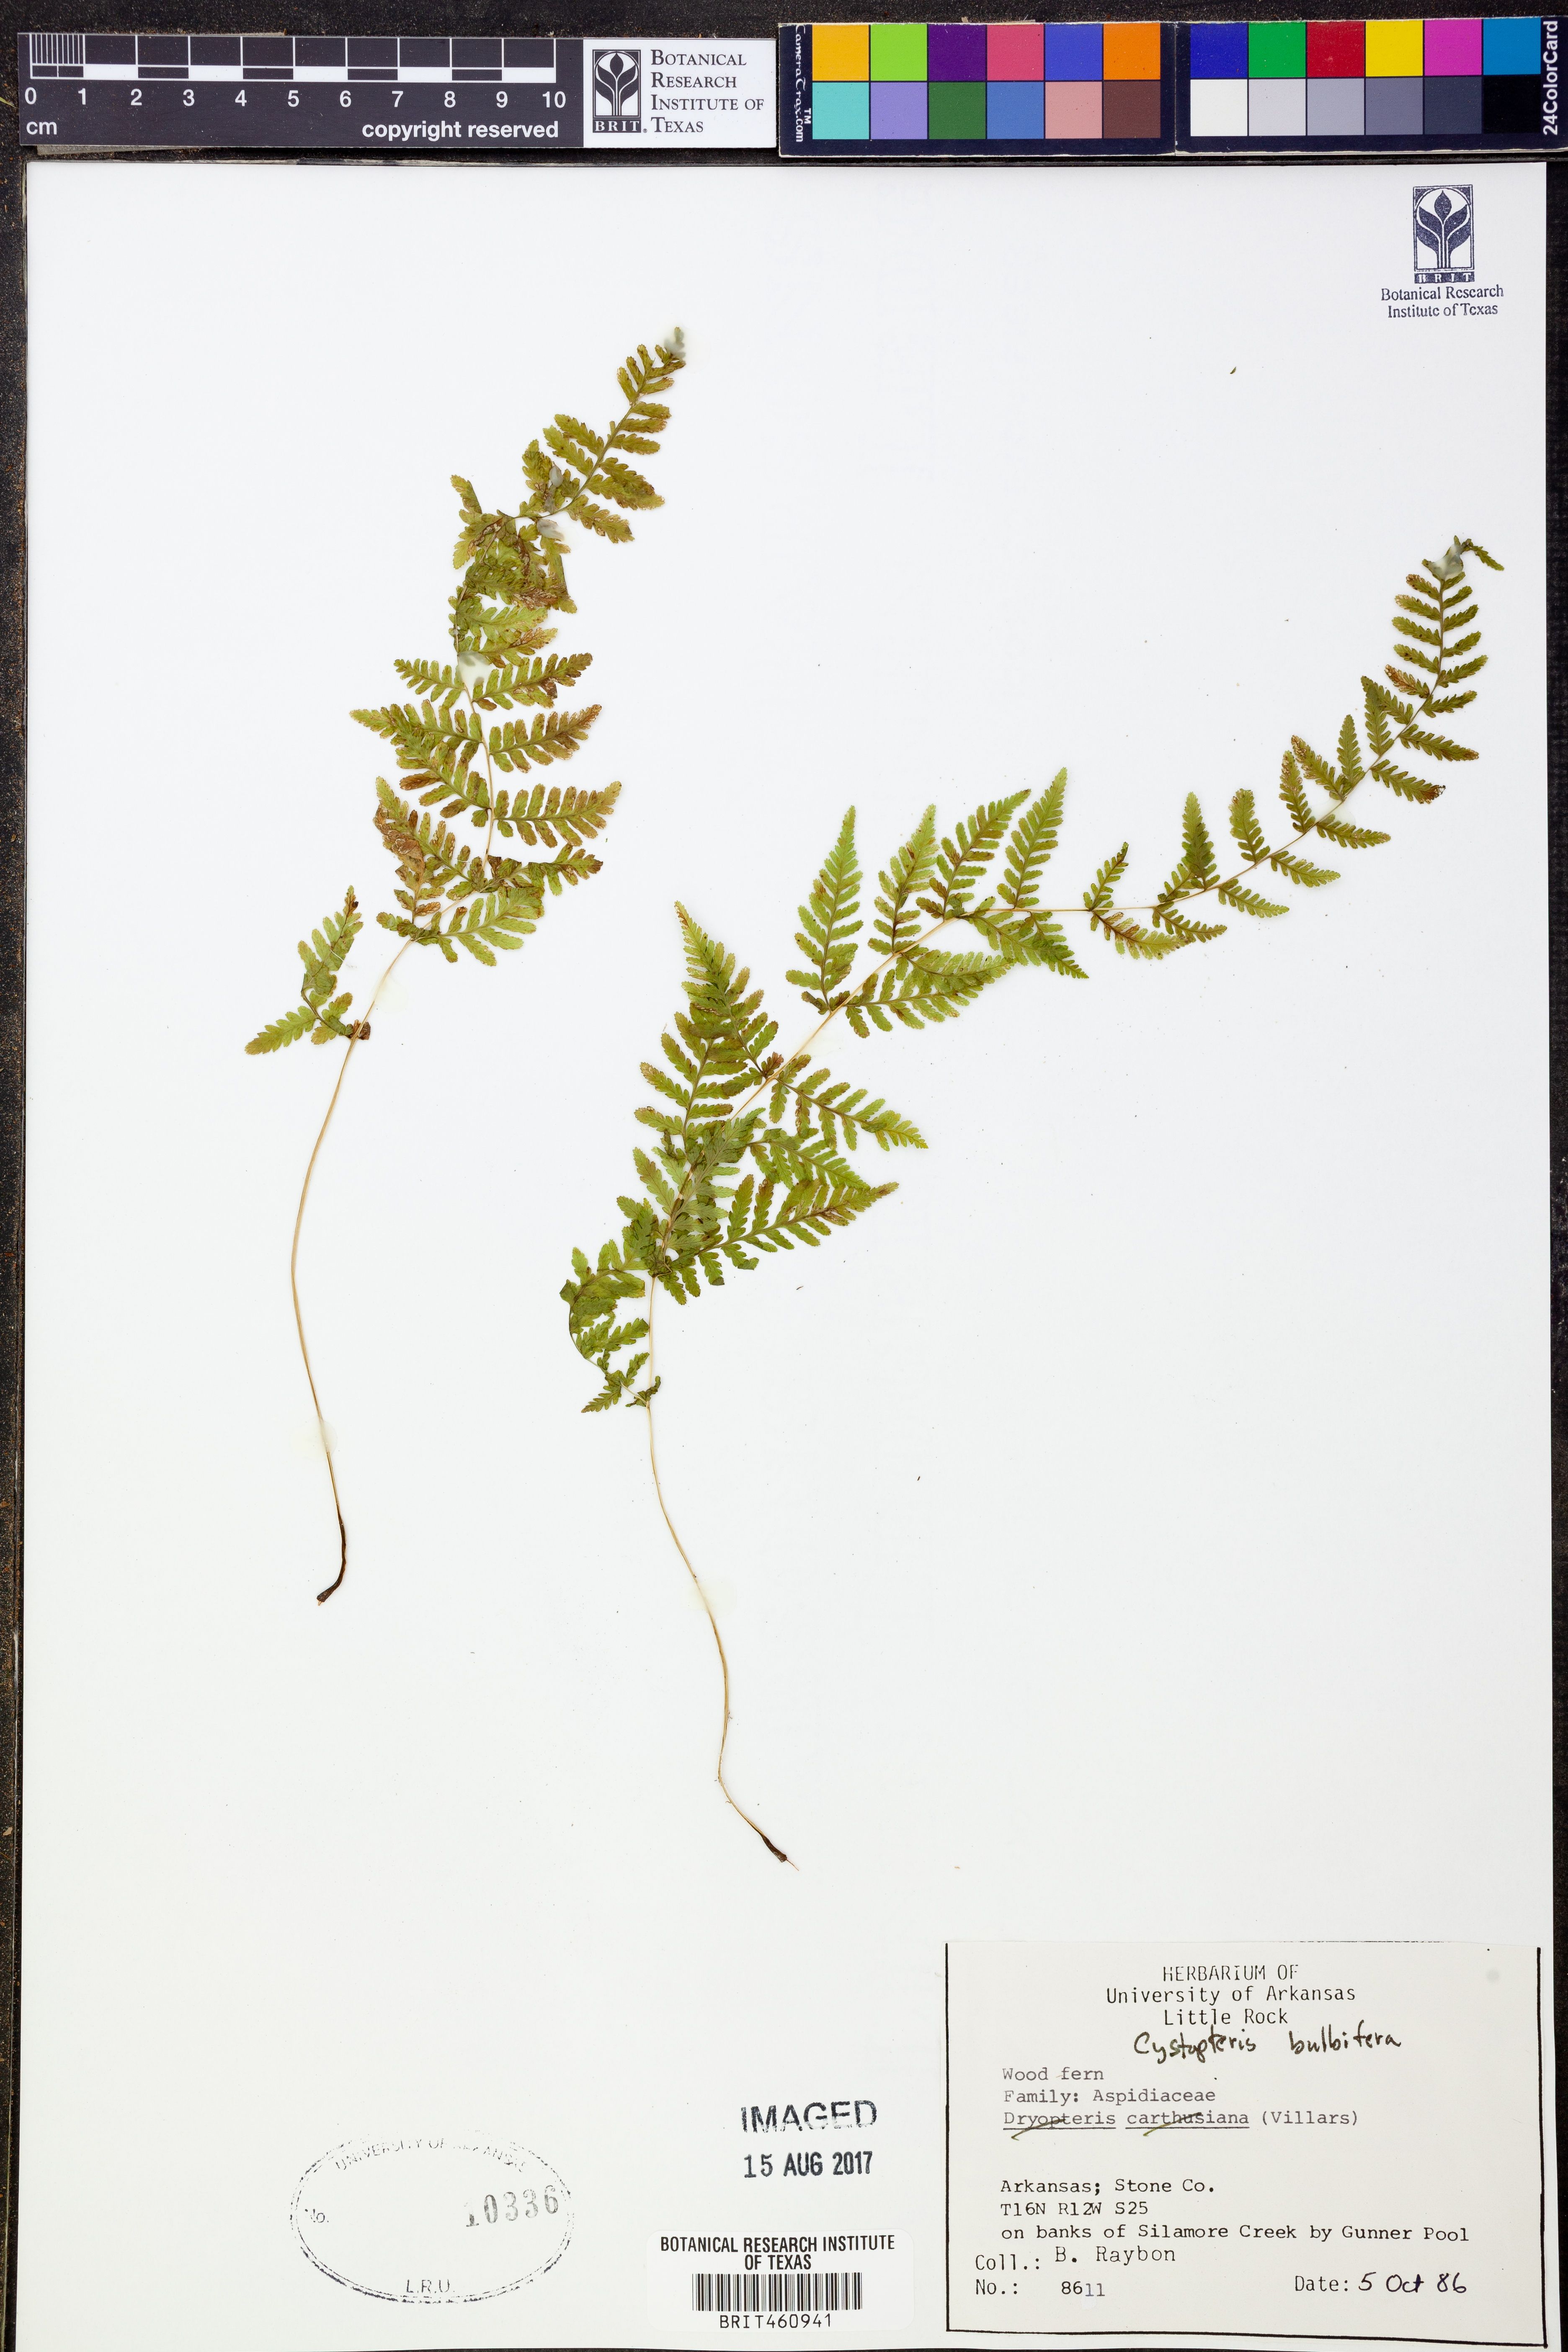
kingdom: Plantae
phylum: Tracheophyta
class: Polypodiopsida
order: Polypodiales
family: Cystopteridaceae
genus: Cystopteris
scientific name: Cystopteris bulbifera
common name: Bulblet bladder fern
